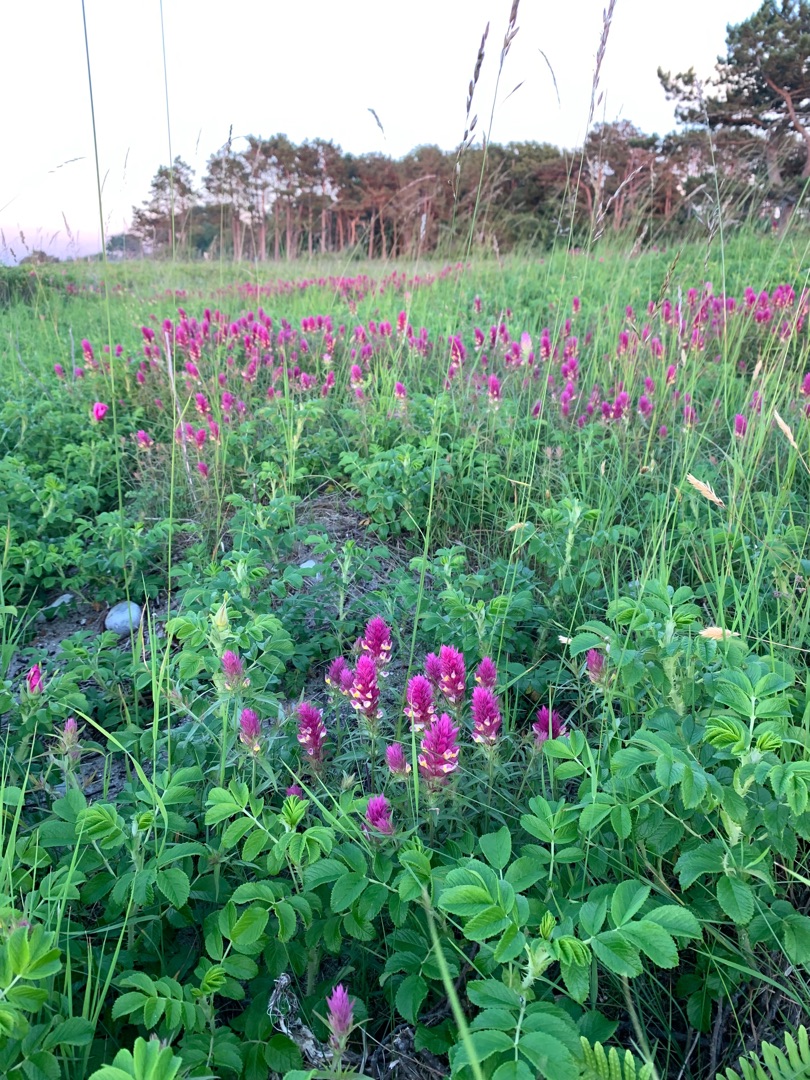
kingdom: Plantae
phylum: Tracheophyta
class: Magnoliopsida
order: Lamiales
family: Orobanchaceae
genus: Melampyrum
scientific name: Melampyrum arvense
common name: Ager-kohvede
